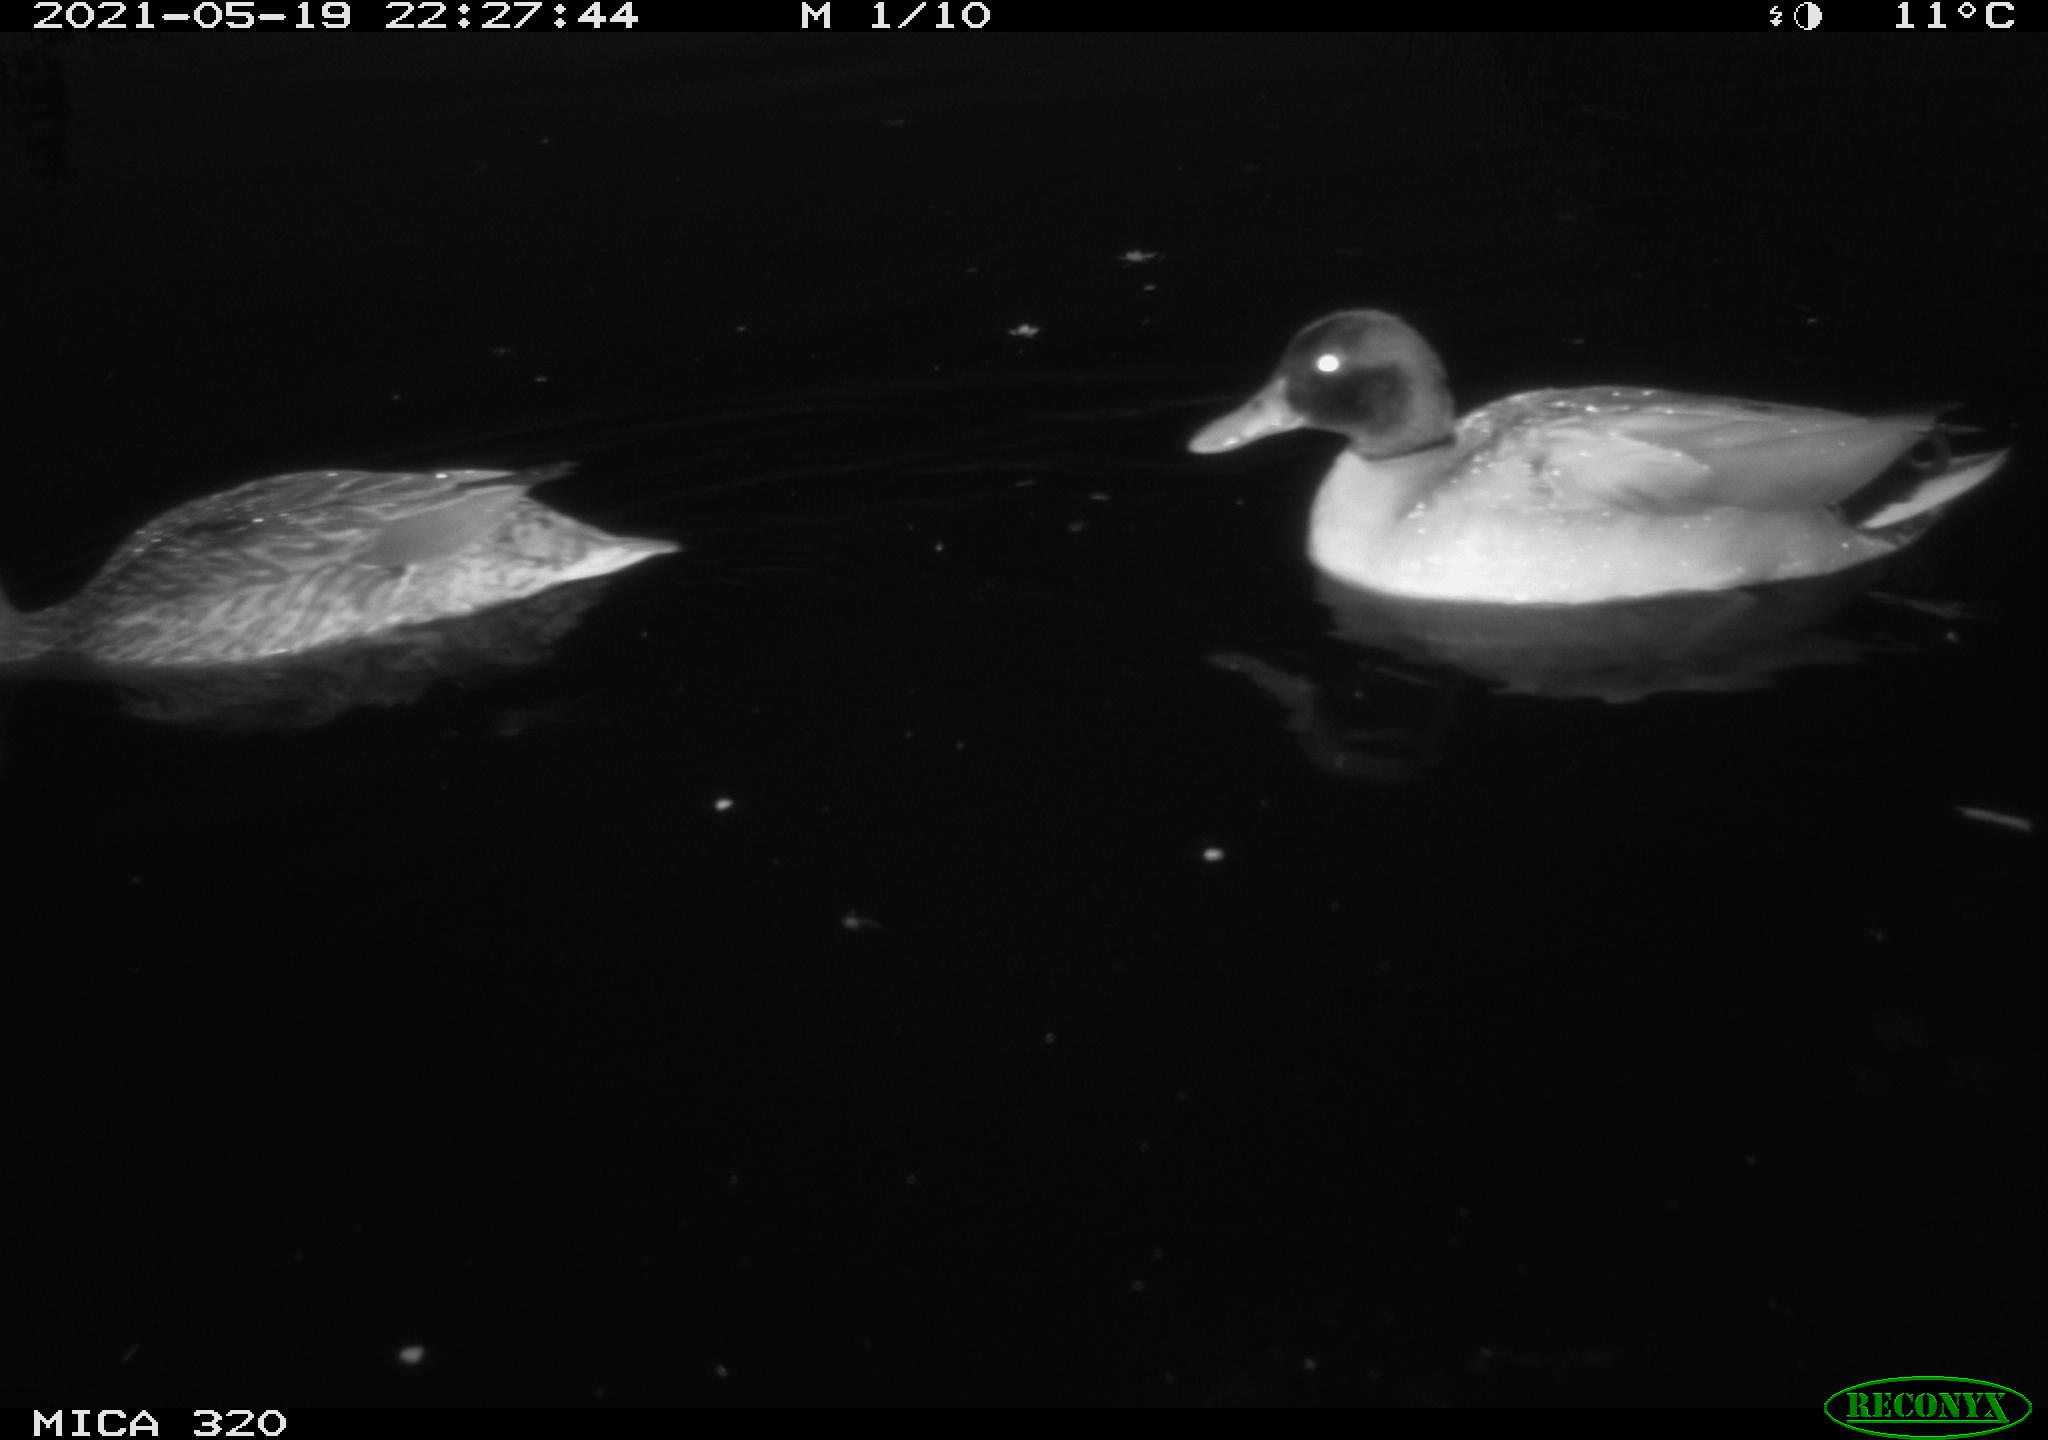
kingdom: Animalia
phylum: Chordata
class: Aves
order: Anseriformes
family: Anatidae
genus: Anas
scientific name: Anas platyrhynchos
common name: Mallard
